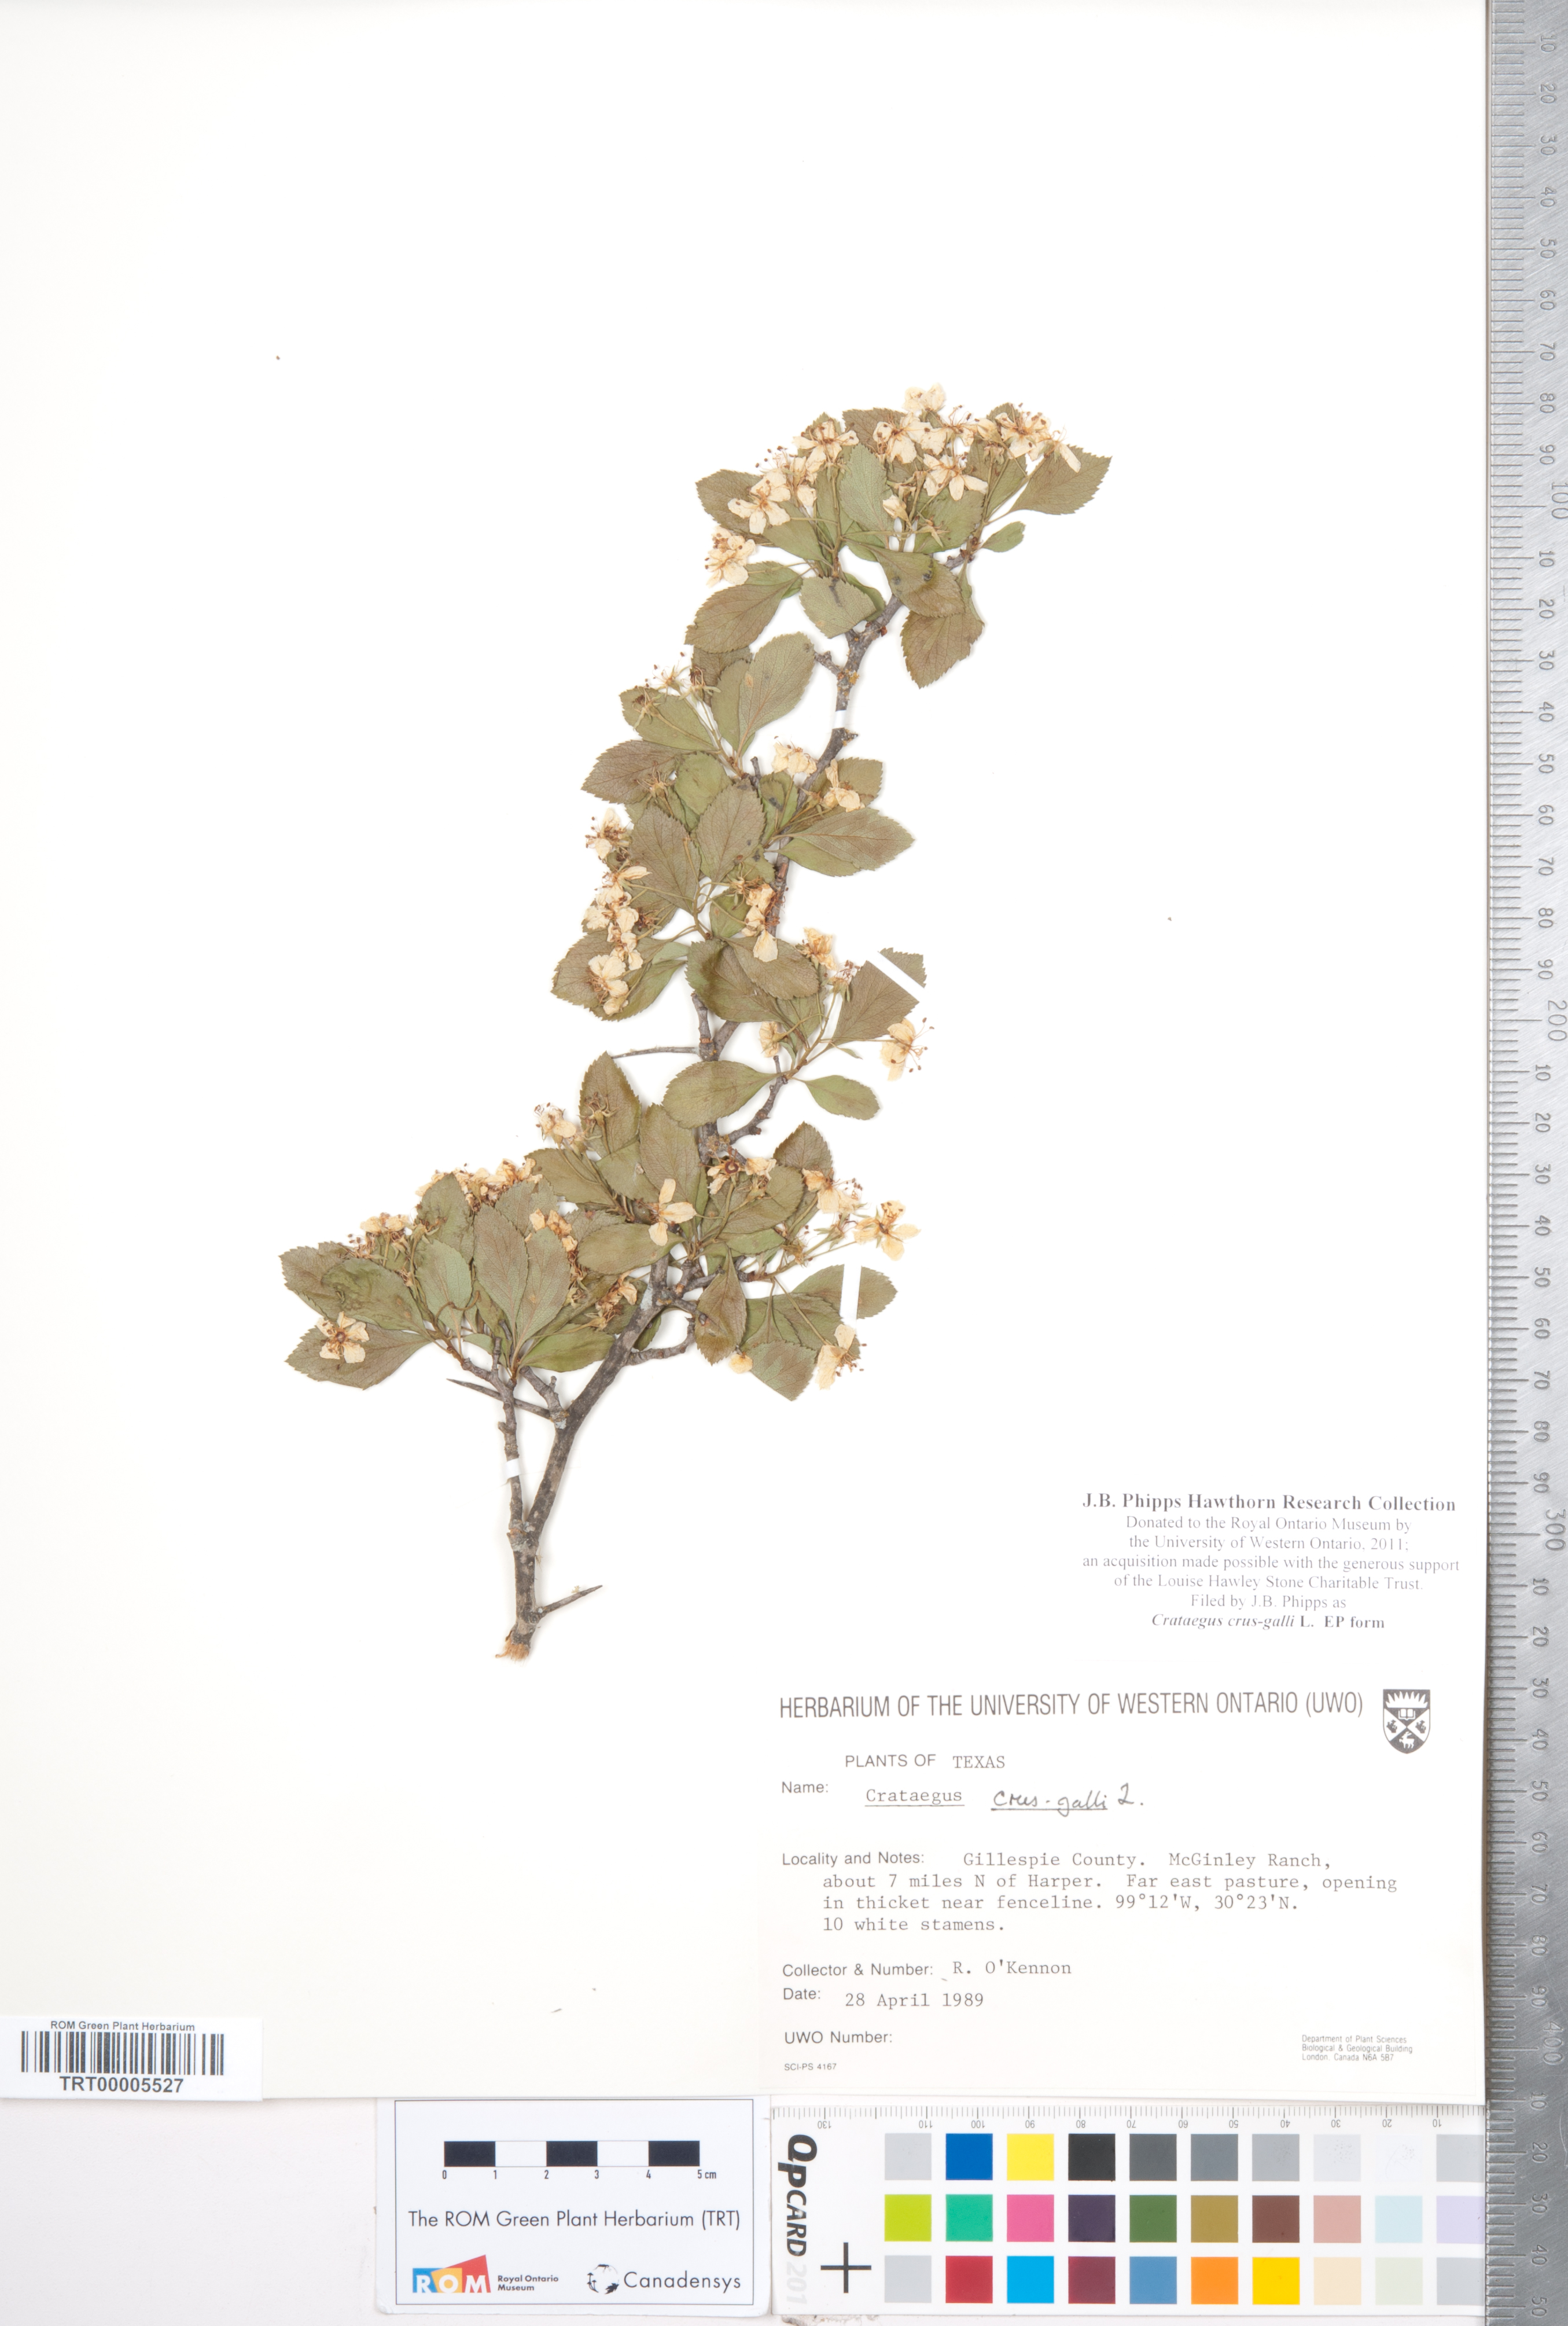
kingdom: Plantae
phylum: Tracheophyta
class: Magnoliopsida
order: Rosales
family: Rosaceae
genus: Crataegus
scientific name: Crataegus crus-galli
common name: Cockspurthorn
